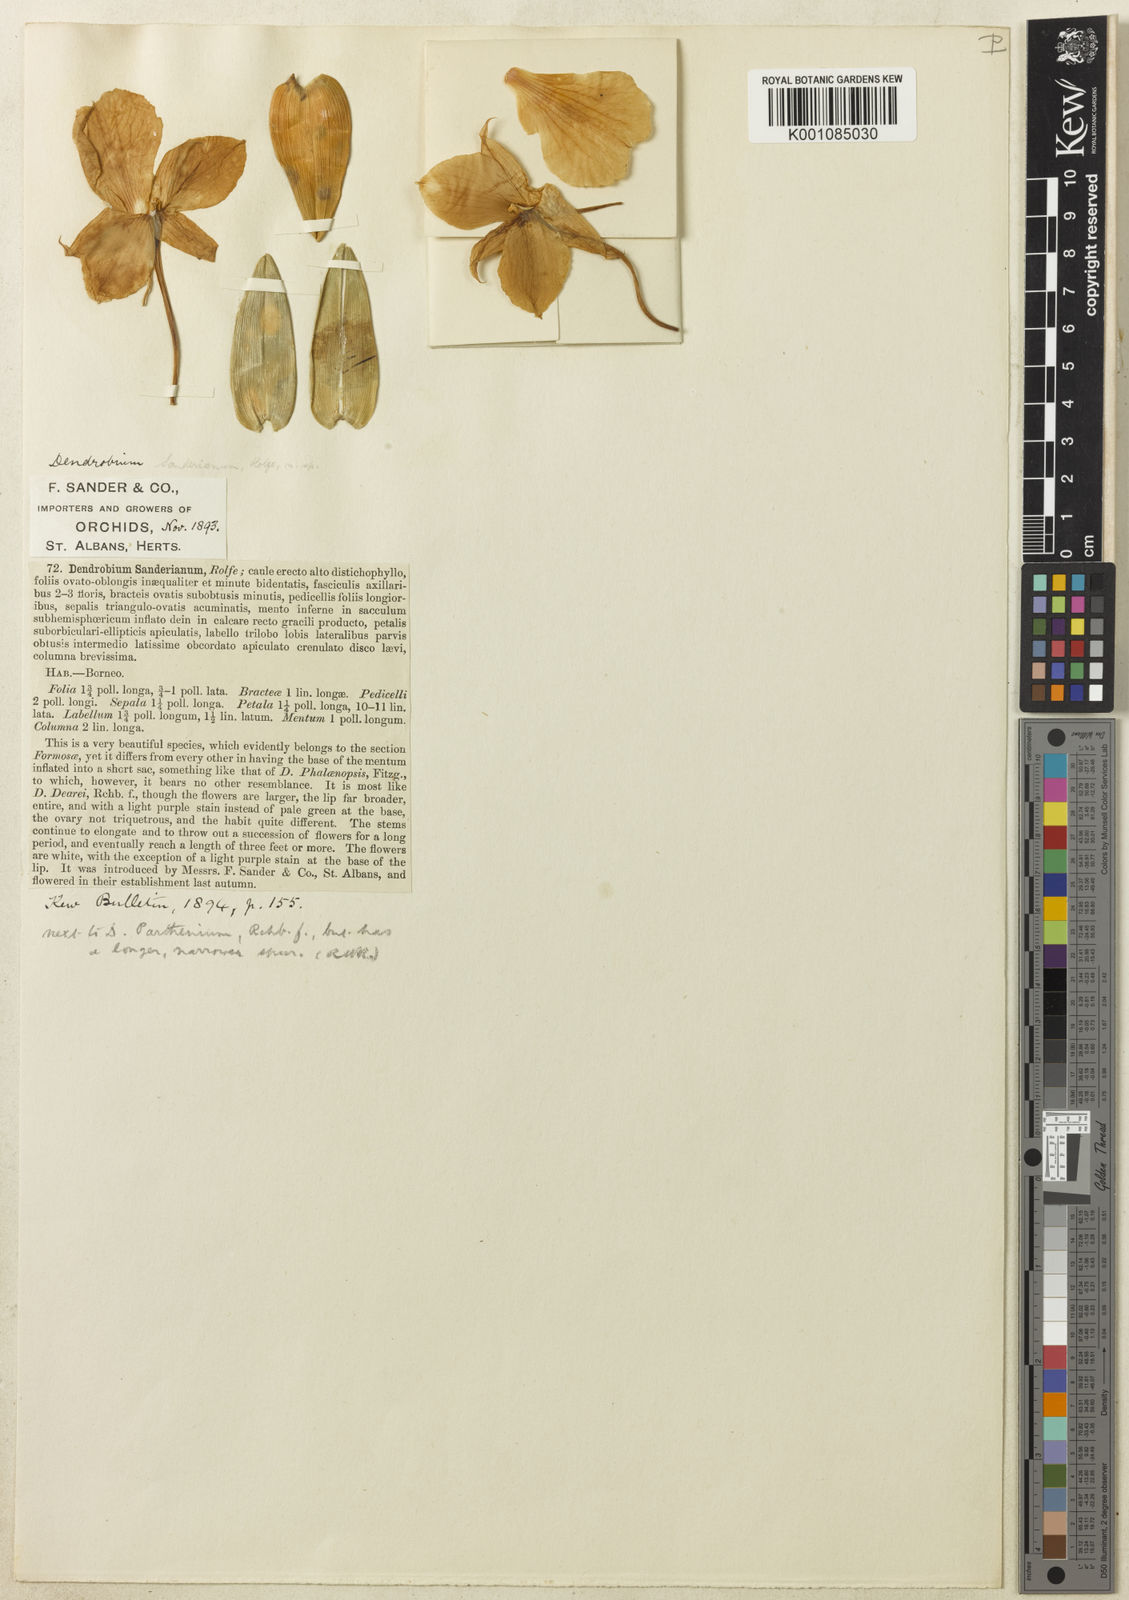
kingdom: Plantae
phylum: Tracheophyta
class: Liliopsida
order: Asparagales
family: Orchidaceae
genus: Dendrobium
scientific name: Dendrobium parthenium
